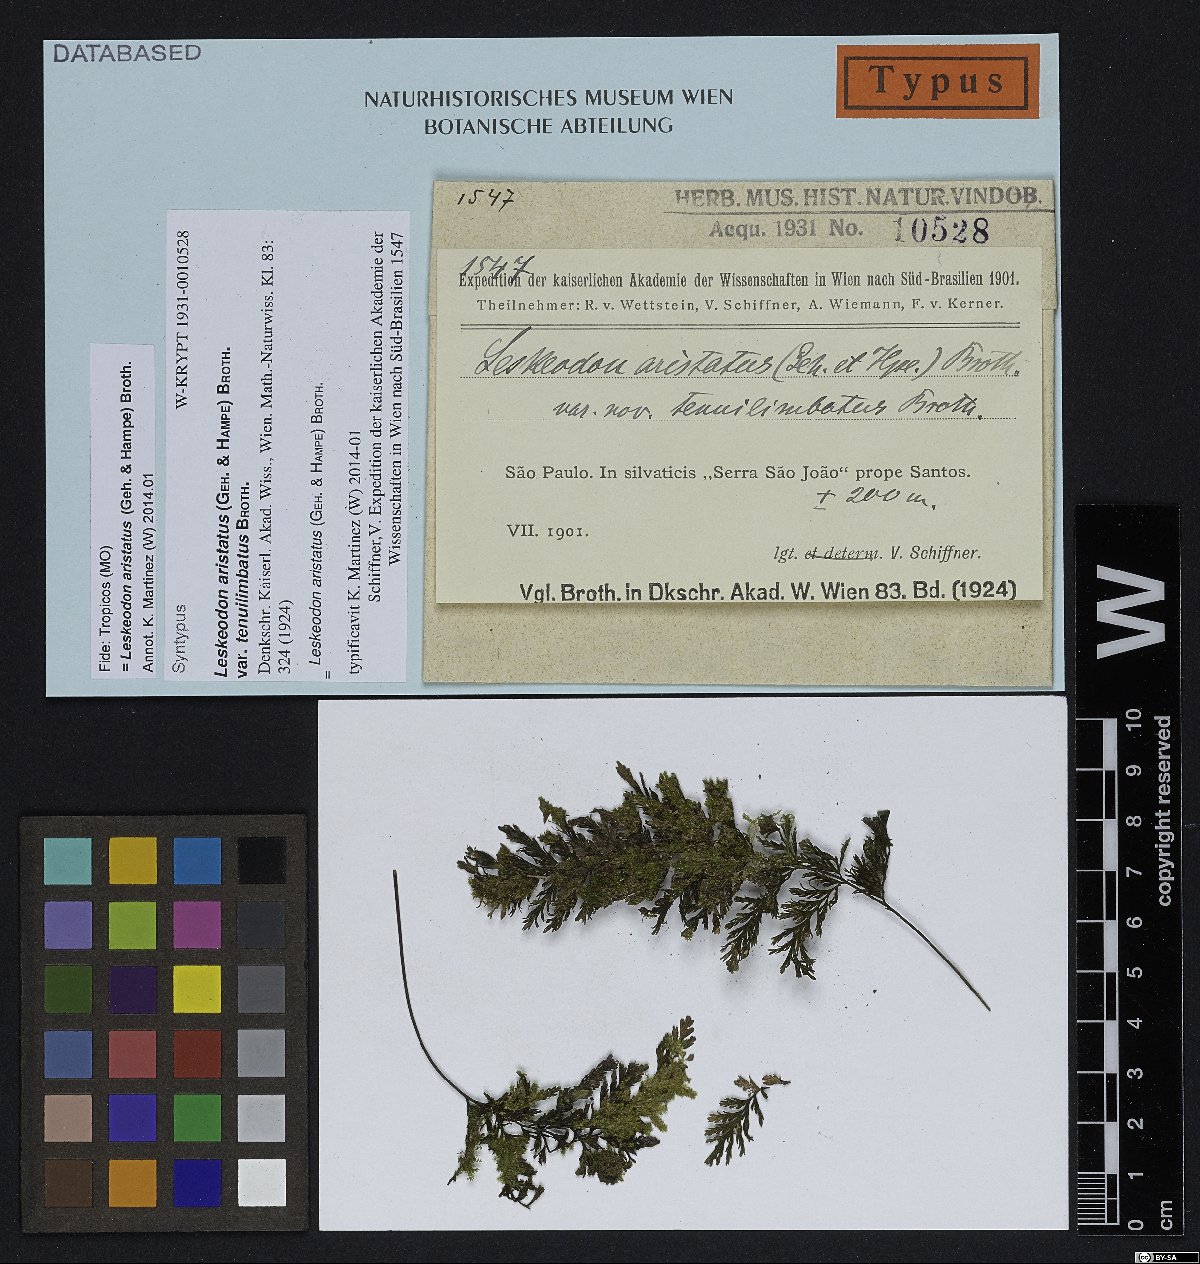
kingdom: Plantae
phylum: Bryophyta
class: Bryopsida
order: Hookeriales
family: Daltoniaceae
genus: Leskeodon
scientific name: Leskeodon aristatus
